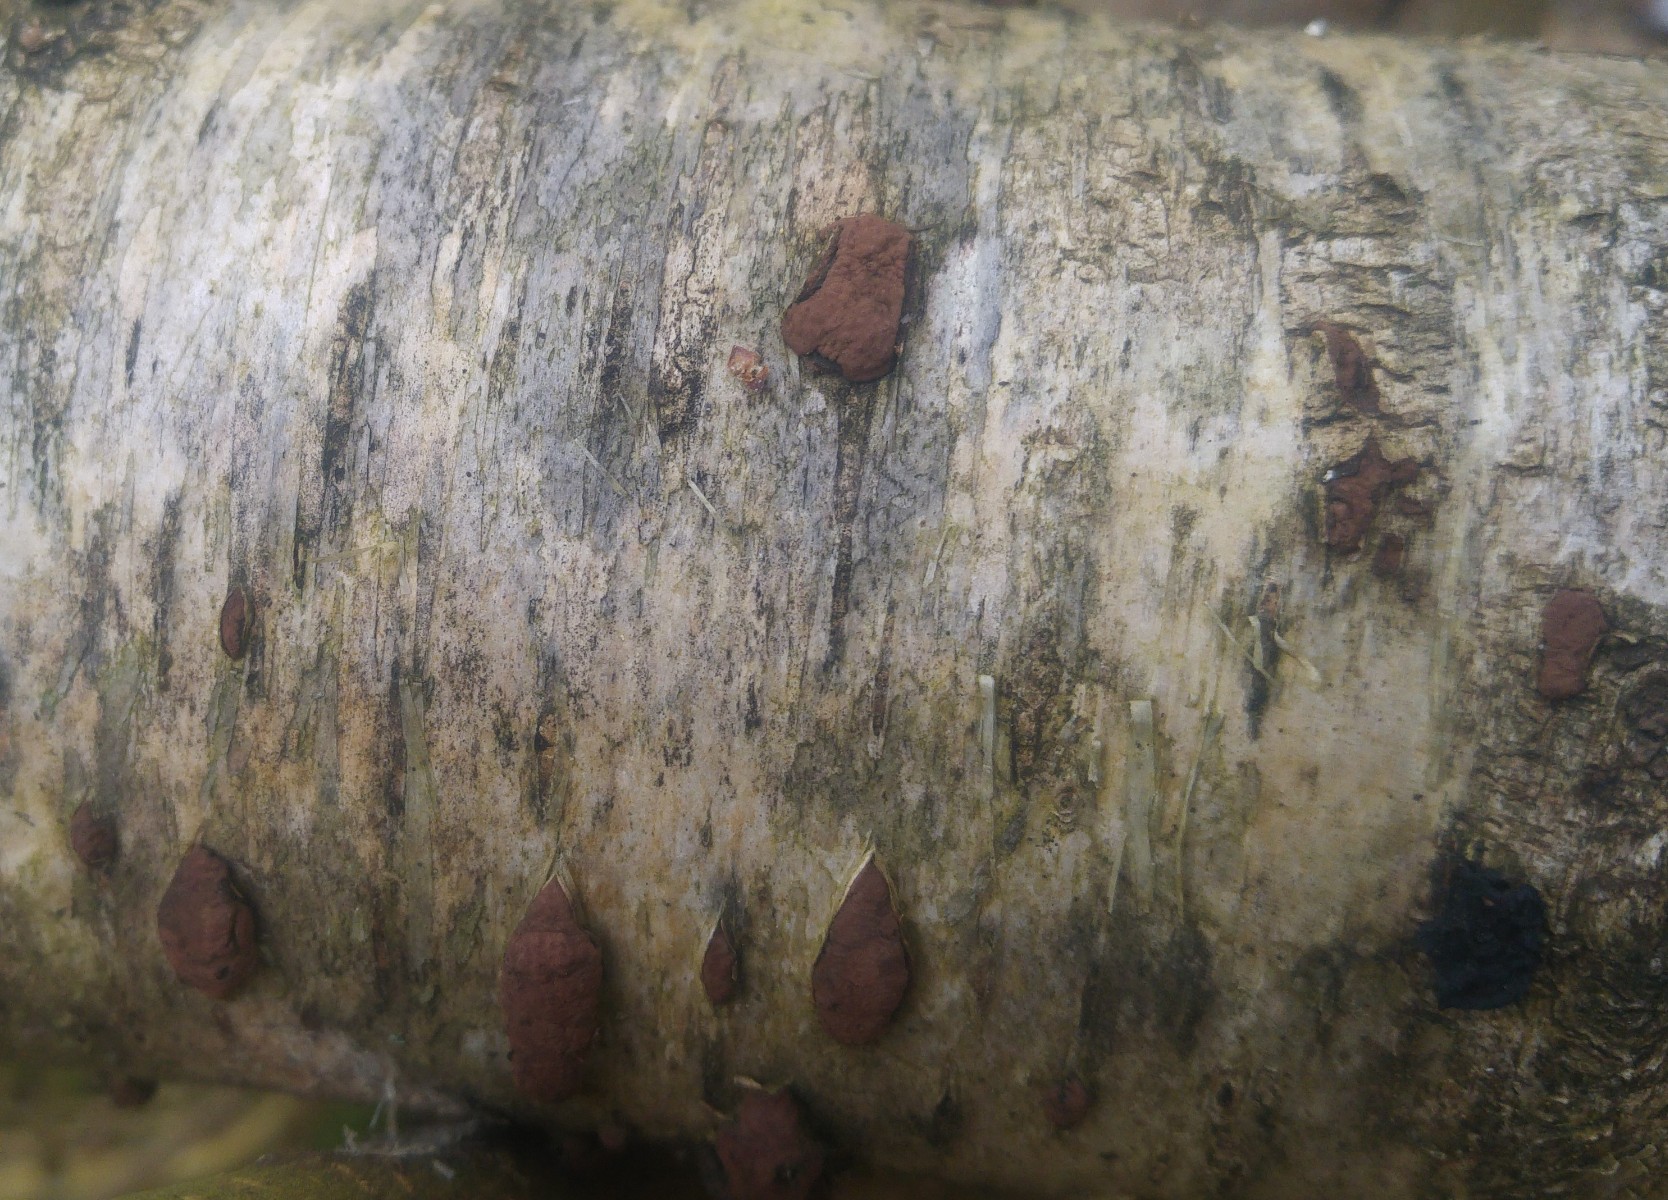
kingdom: Fungi
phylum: Ascomycota
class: Sordariomycetes
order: Xylariales
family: Hypoxylaceae
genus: Jackrogersella
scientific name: Jackrogersella multiformis
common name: foranderlig kulbær
